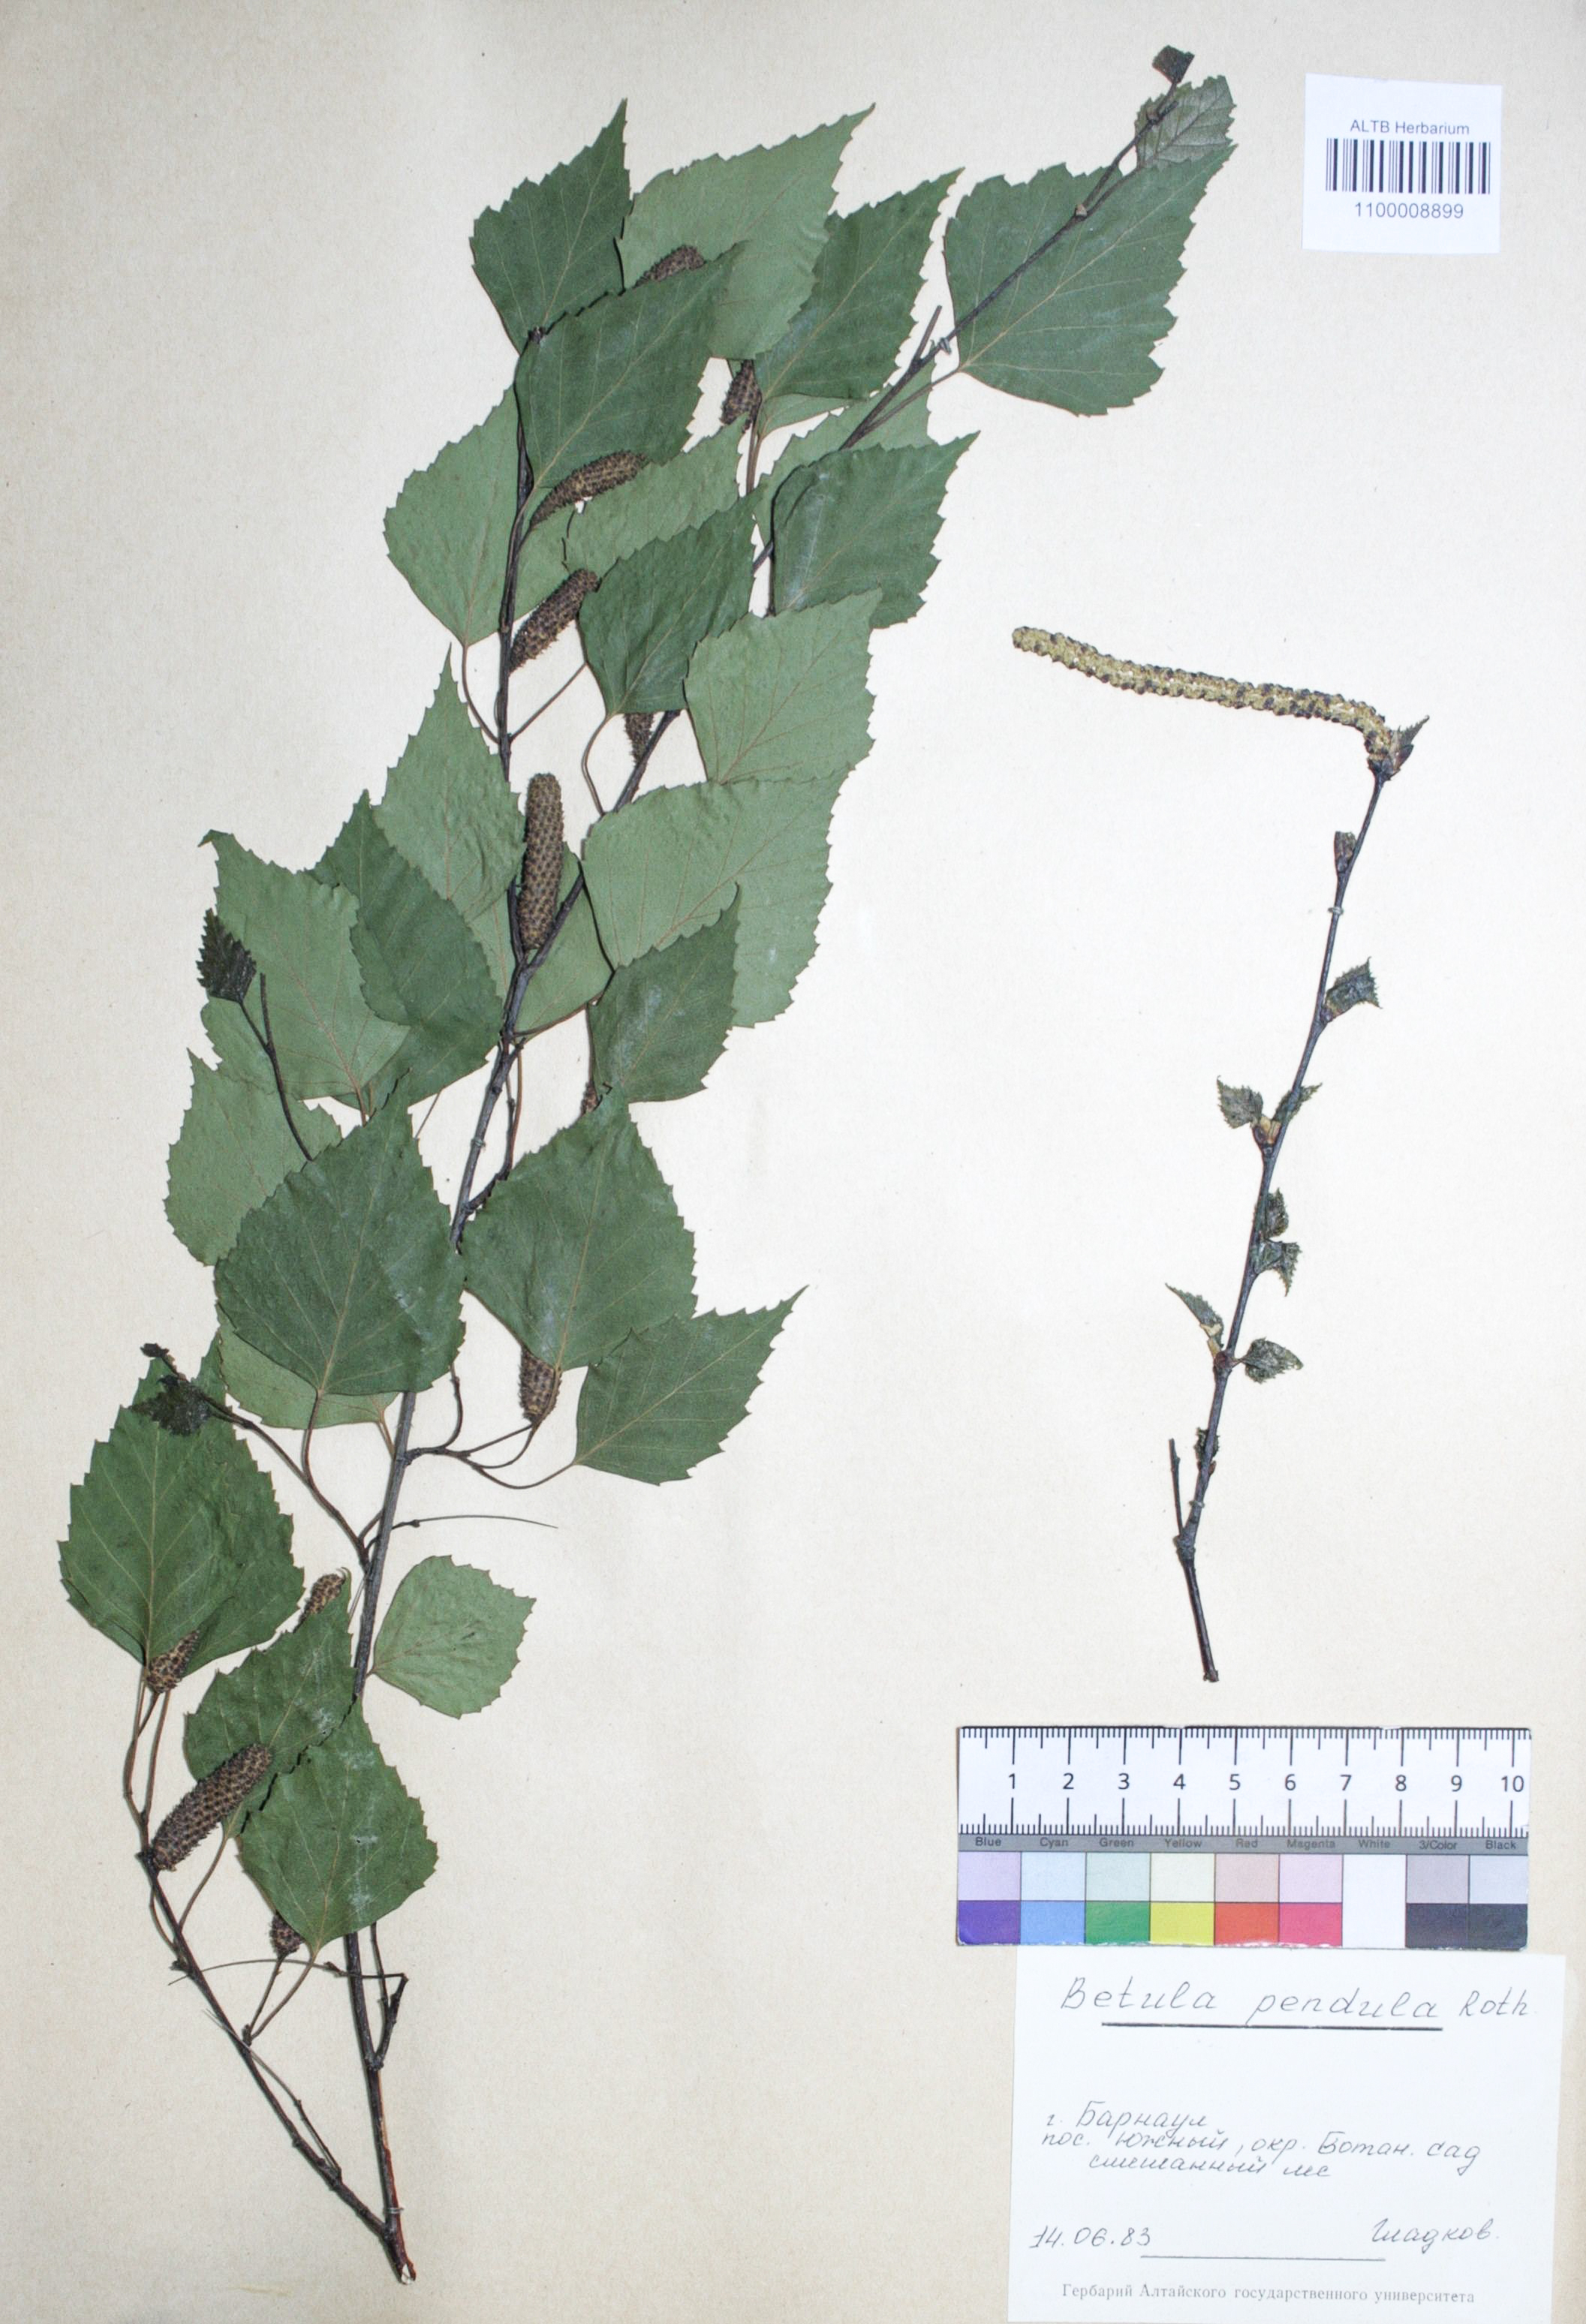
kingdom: Plantae
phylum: Tracheophyta
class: Magnoliopsida
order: Fagales
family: Betulaceae
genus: Betula
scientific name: Betula pendula
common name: Silver birch
